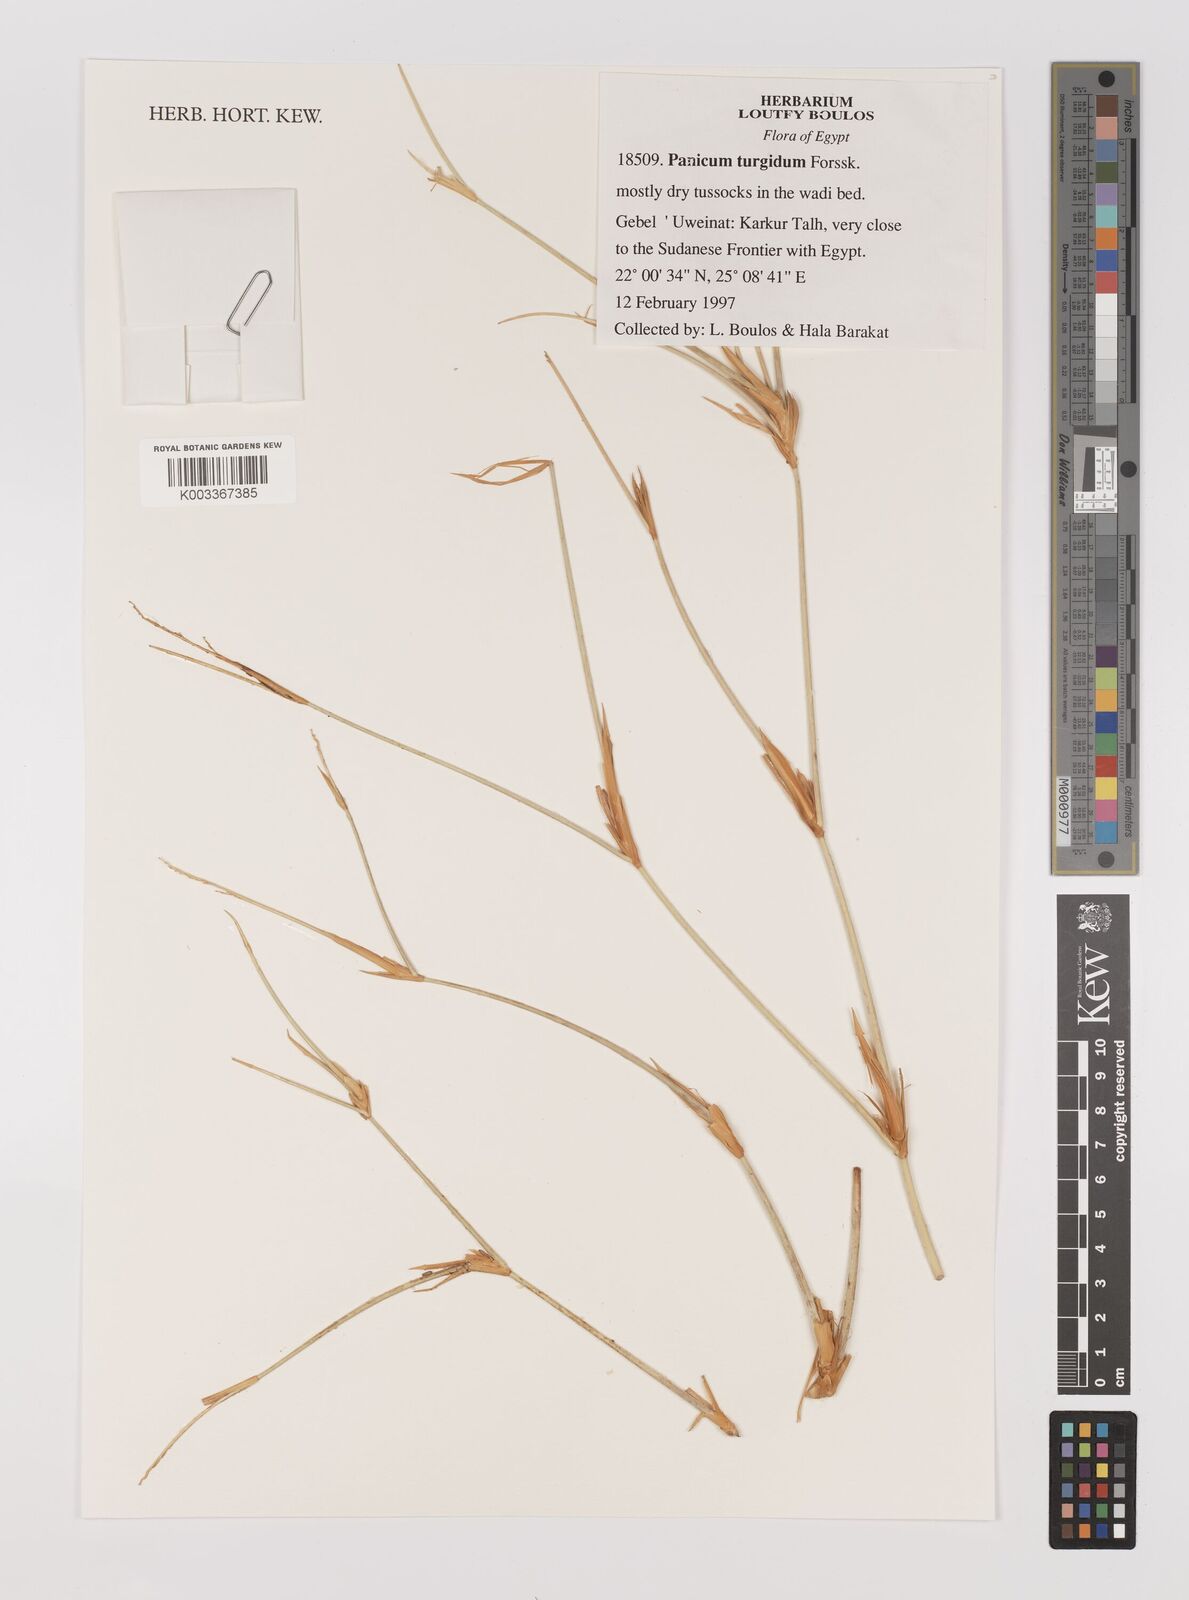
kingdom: Plantae
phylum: Tracheophyta
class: Liliopsida
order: Poales
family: Poaceae
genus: Panicum
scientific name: Panicum turgidum
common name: Desert grass
